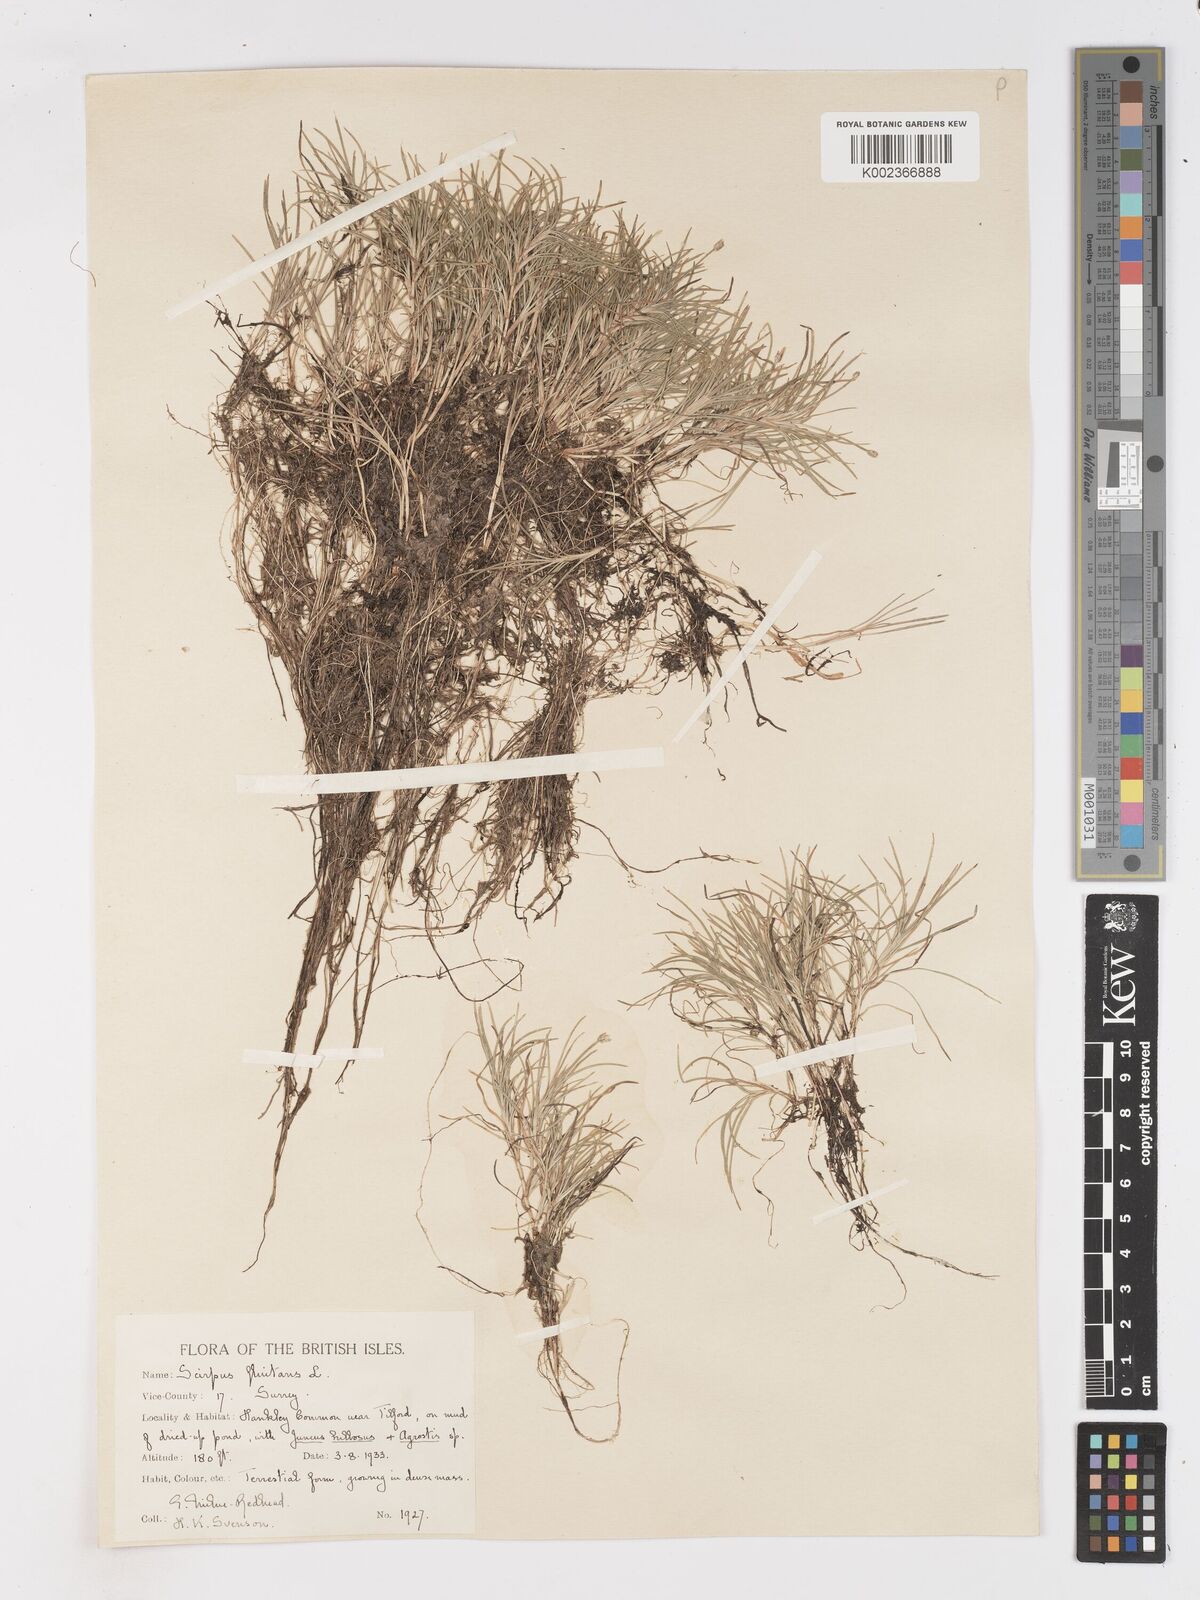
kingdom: Plantae
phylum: Tracheophyta
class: Liliopsida
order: Poales
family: Cyperaceae
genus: Isolepis
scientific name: Isolepis fluitans
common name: Floating club-rush
